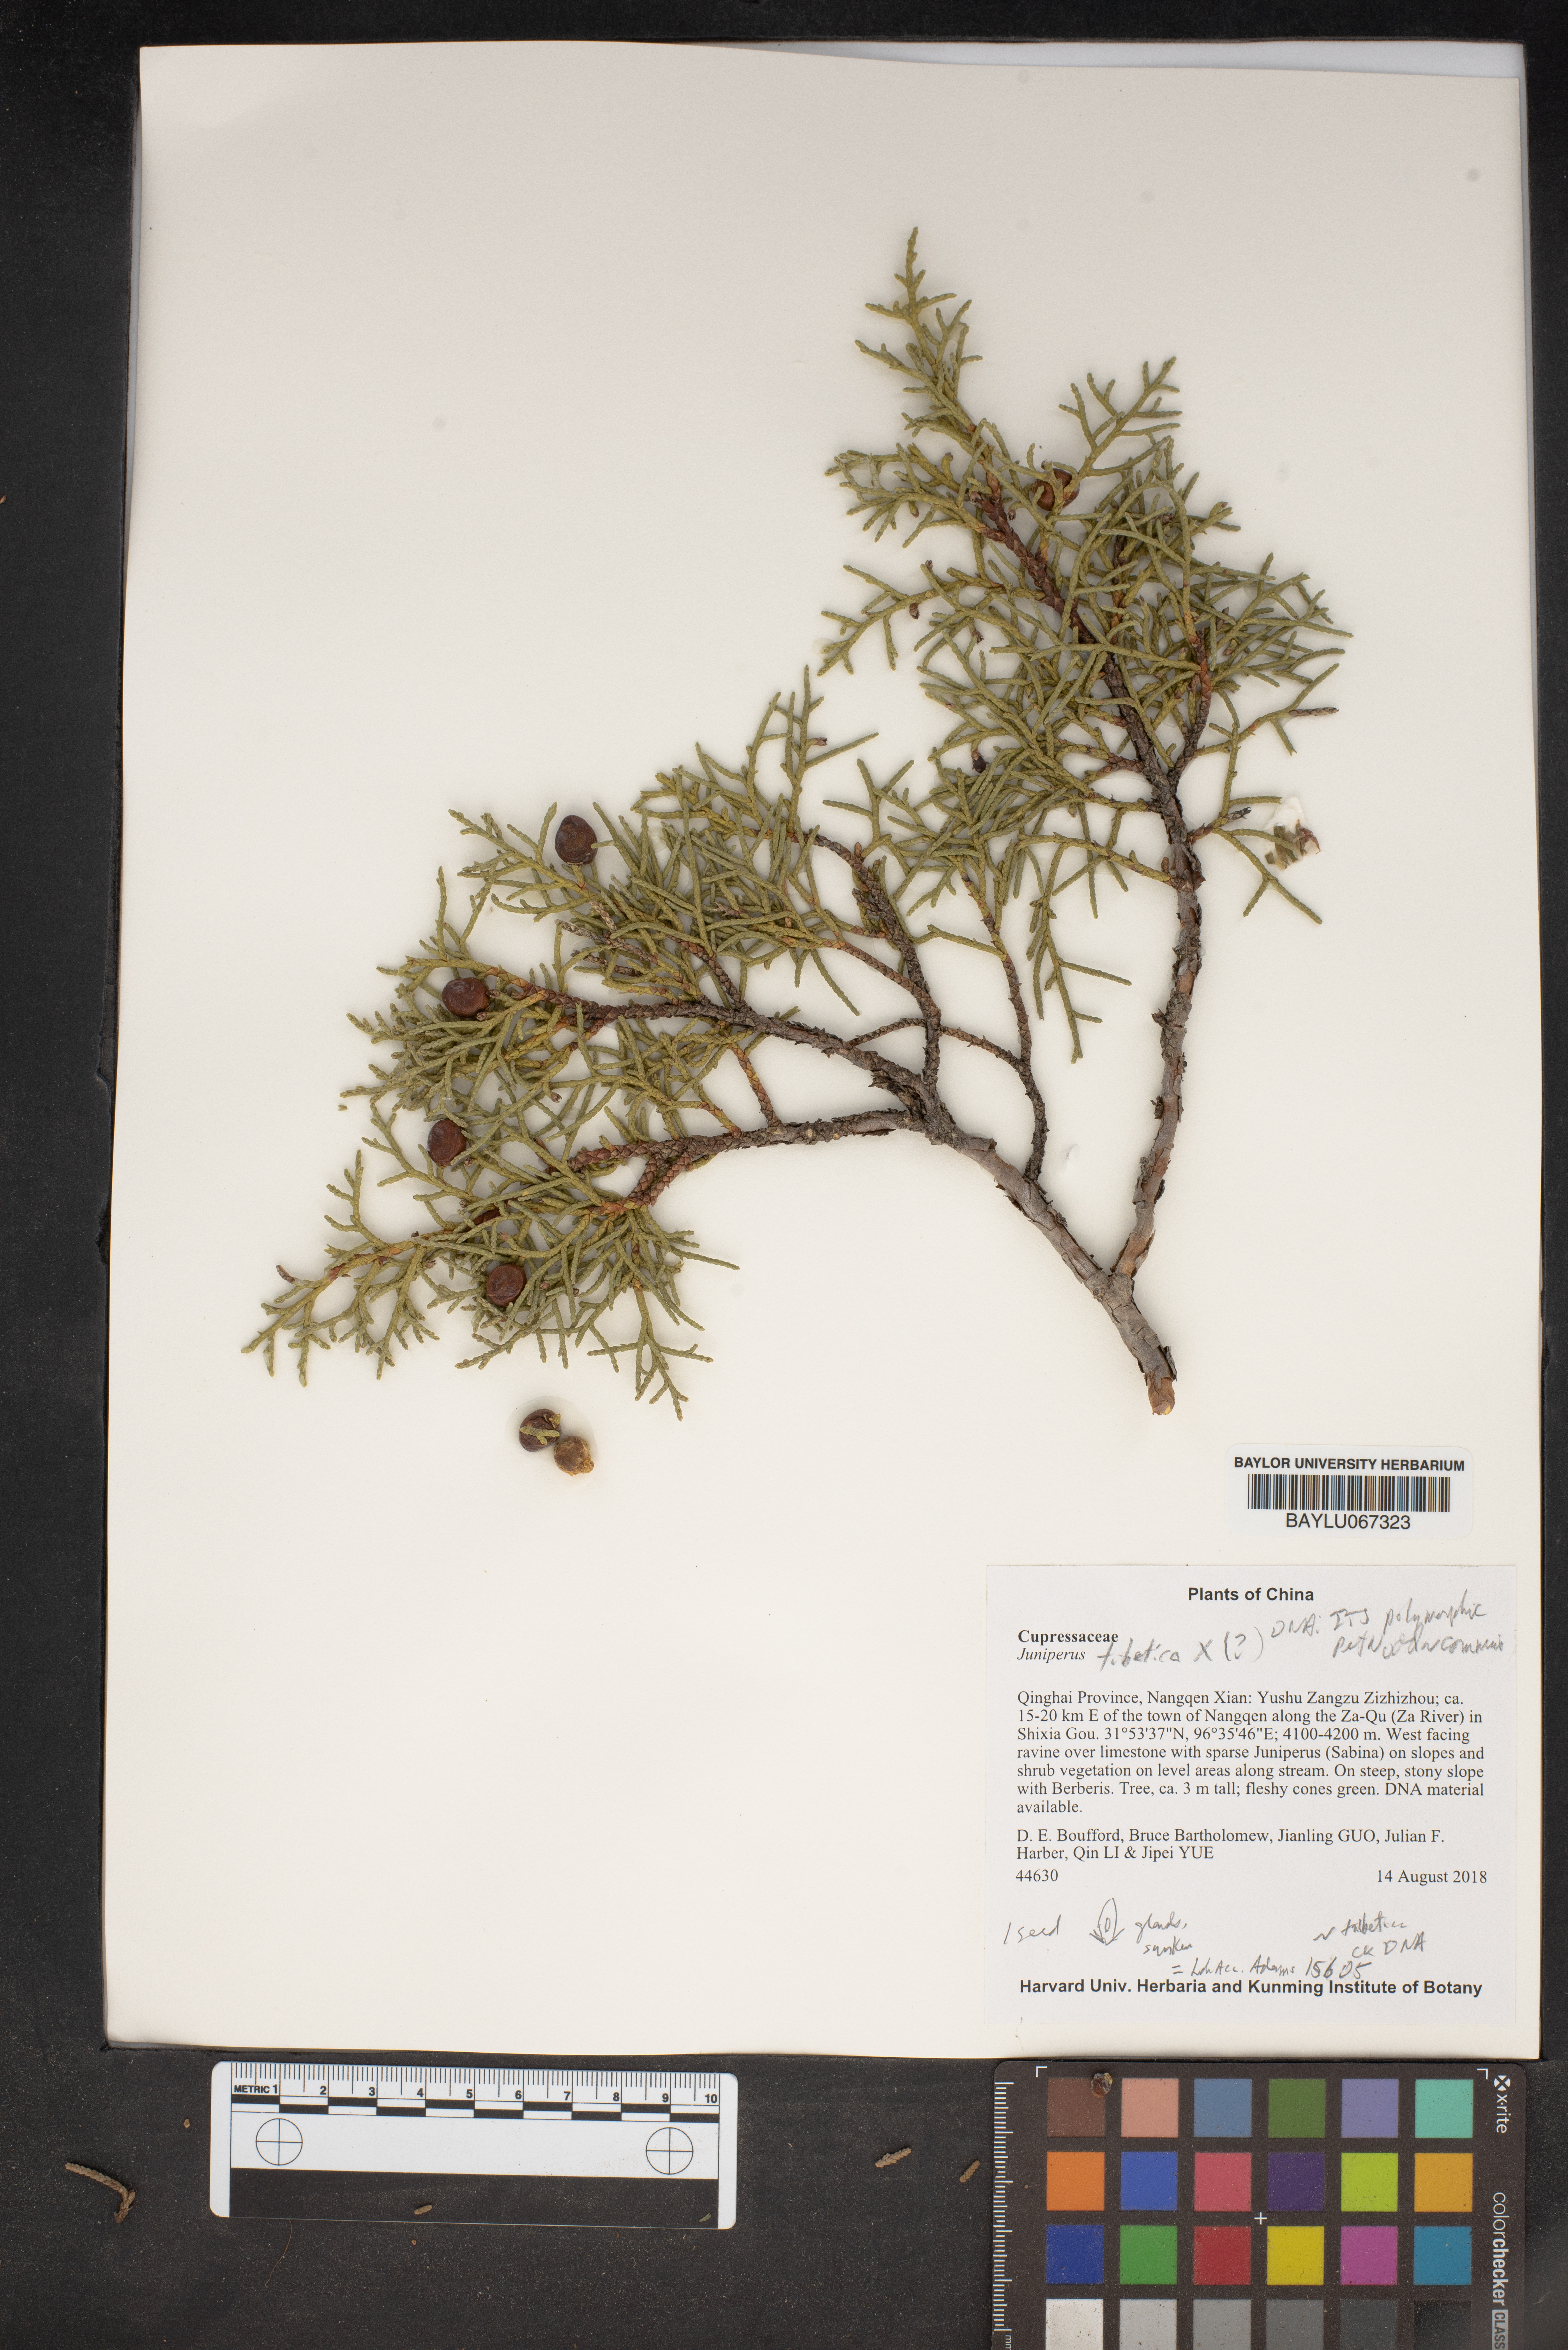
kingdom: Plantae
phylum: Tracheophyta
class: Pinopsida
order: Pinales
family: Cupressaceae
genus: Juniperus
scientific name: Juniperus tibetica
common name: Tibetan juniper
